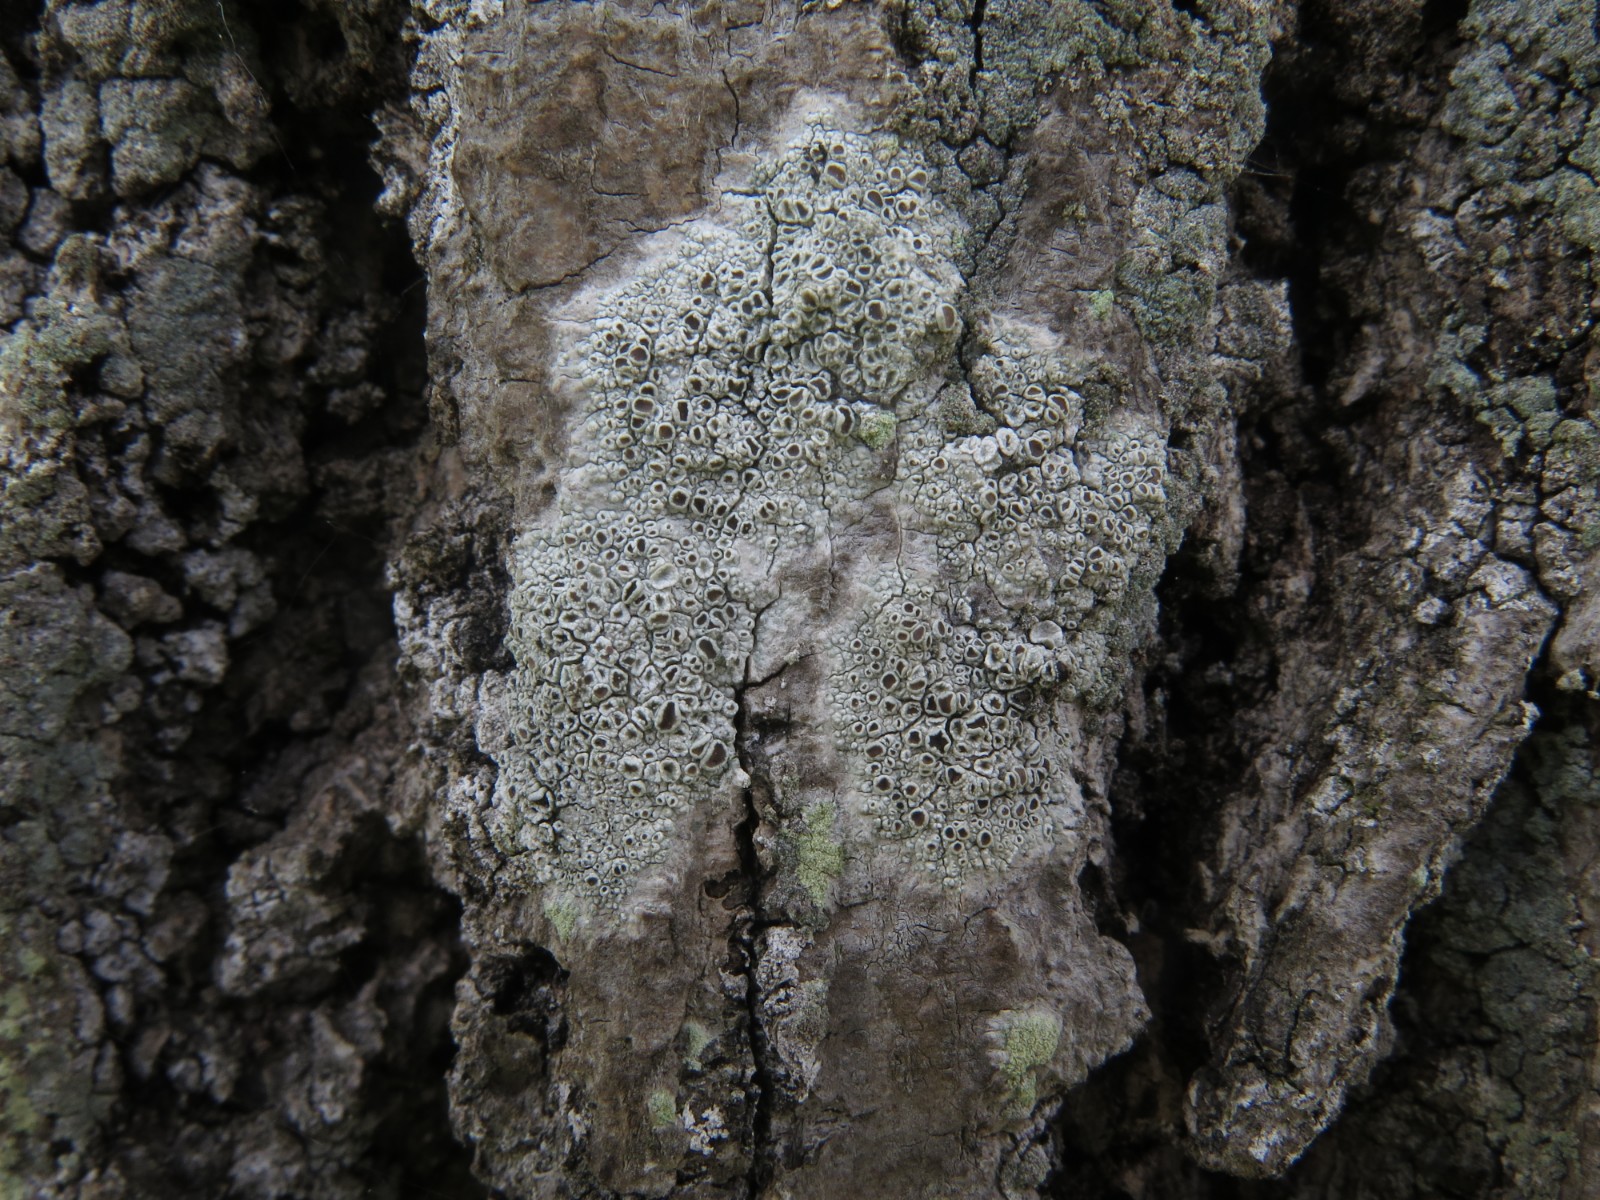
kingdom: Fungi
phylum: Ascomycota
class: Lecanoromycetes
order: Lecanorales
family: Lecanoraceae
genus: Lecanora
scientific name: Lecanora chlarotera
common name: brun kantskivelav
